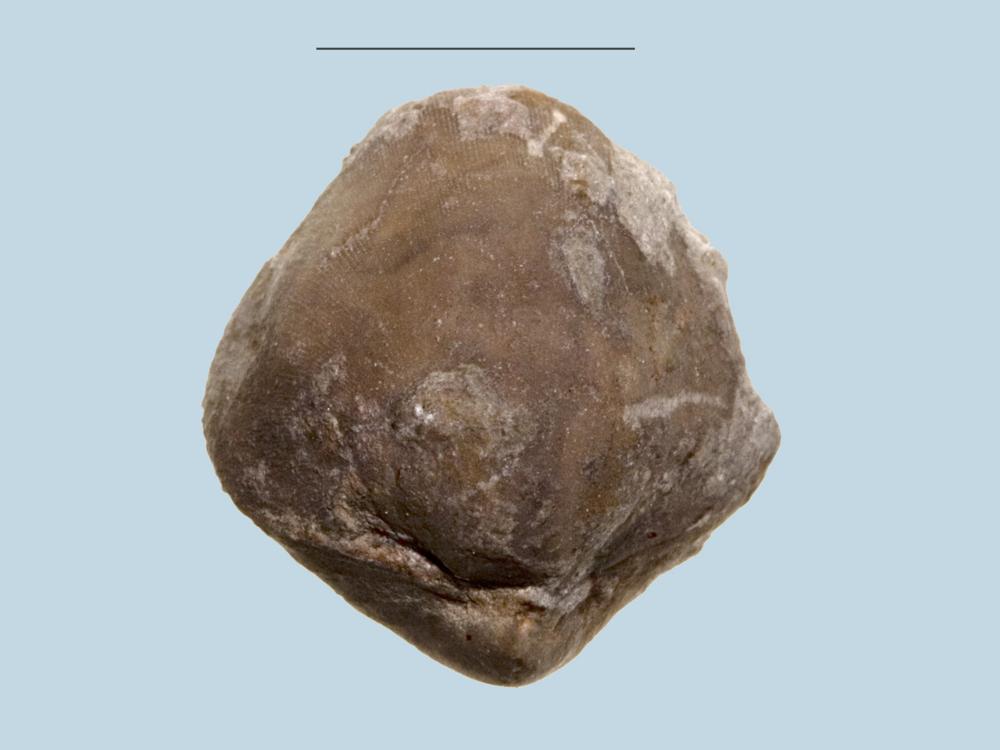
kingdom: Animalia
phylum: Brachiopoda
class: Rhynchonellata
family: Porambonitidae
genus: Porambonites
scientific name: Porambonites
